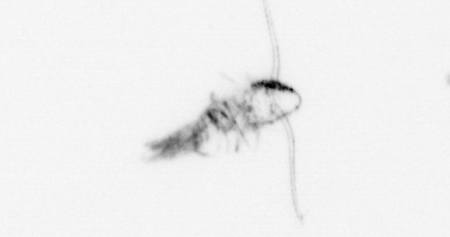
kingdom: Animalia
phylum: Arthropoda
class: Copepoda
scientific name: Copepoda
